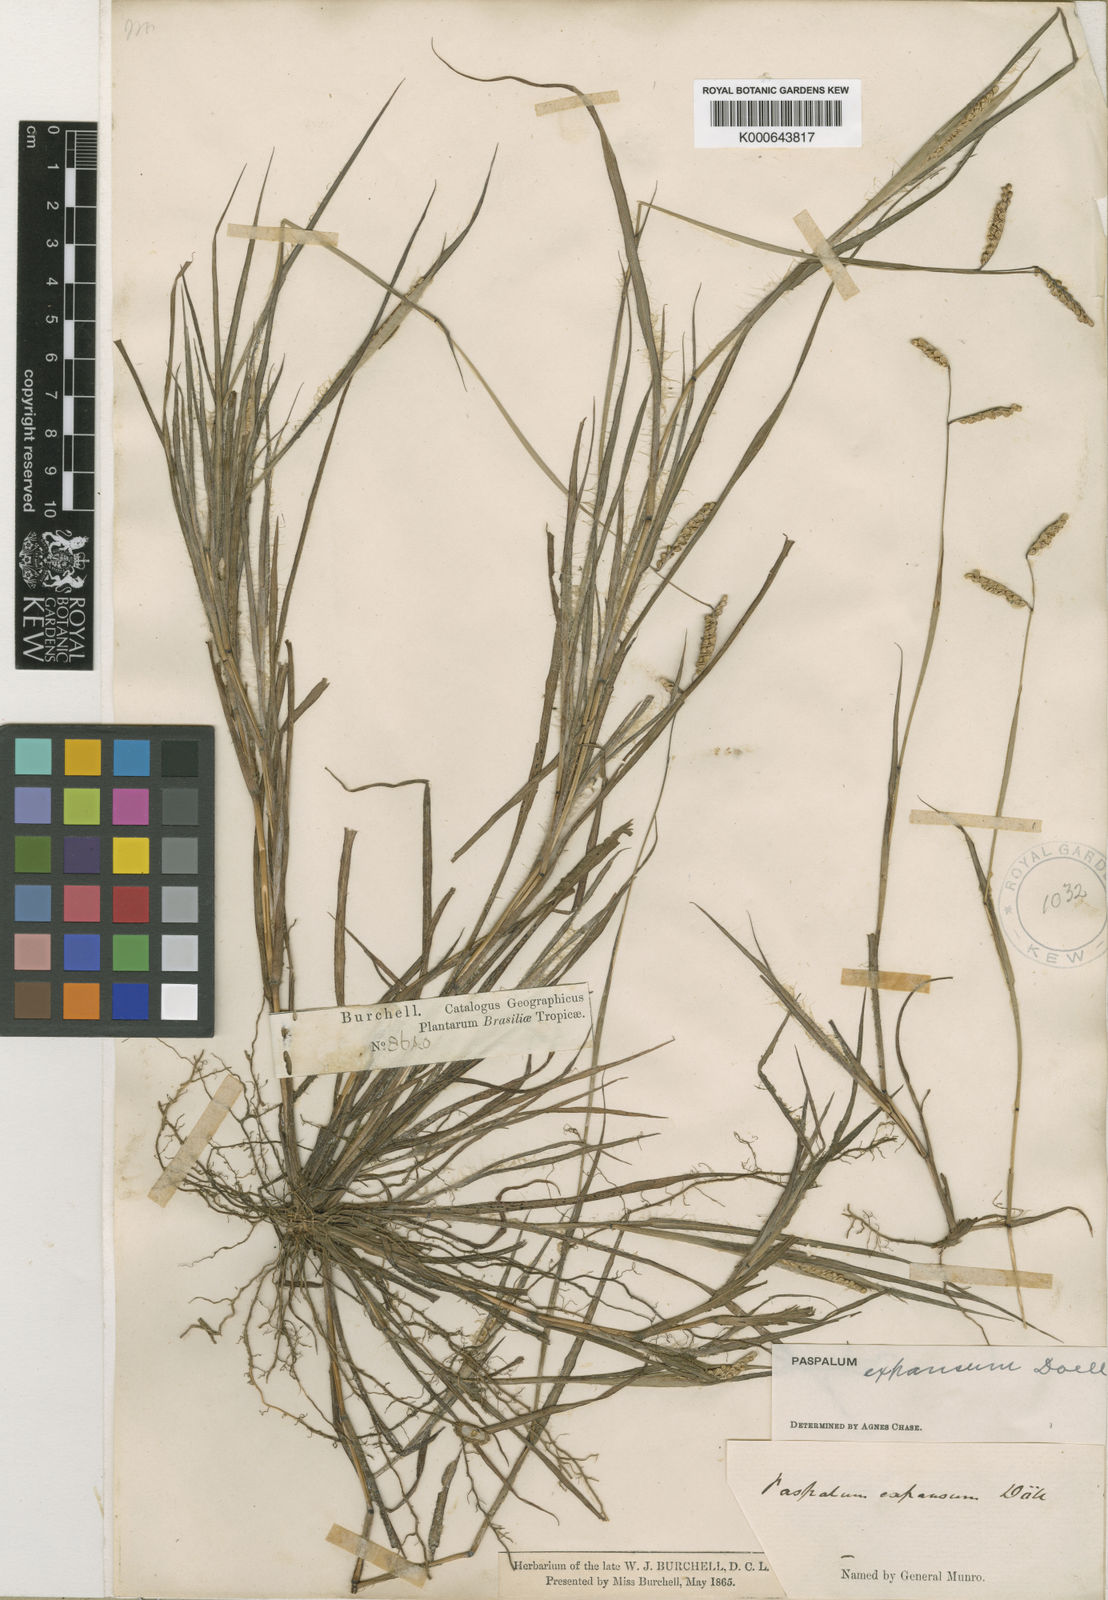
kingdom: Plantae
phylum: Tracheophyta
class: Liliopsida
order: Poales
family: Poaceae
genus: Paspalum
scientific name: Paspalum
